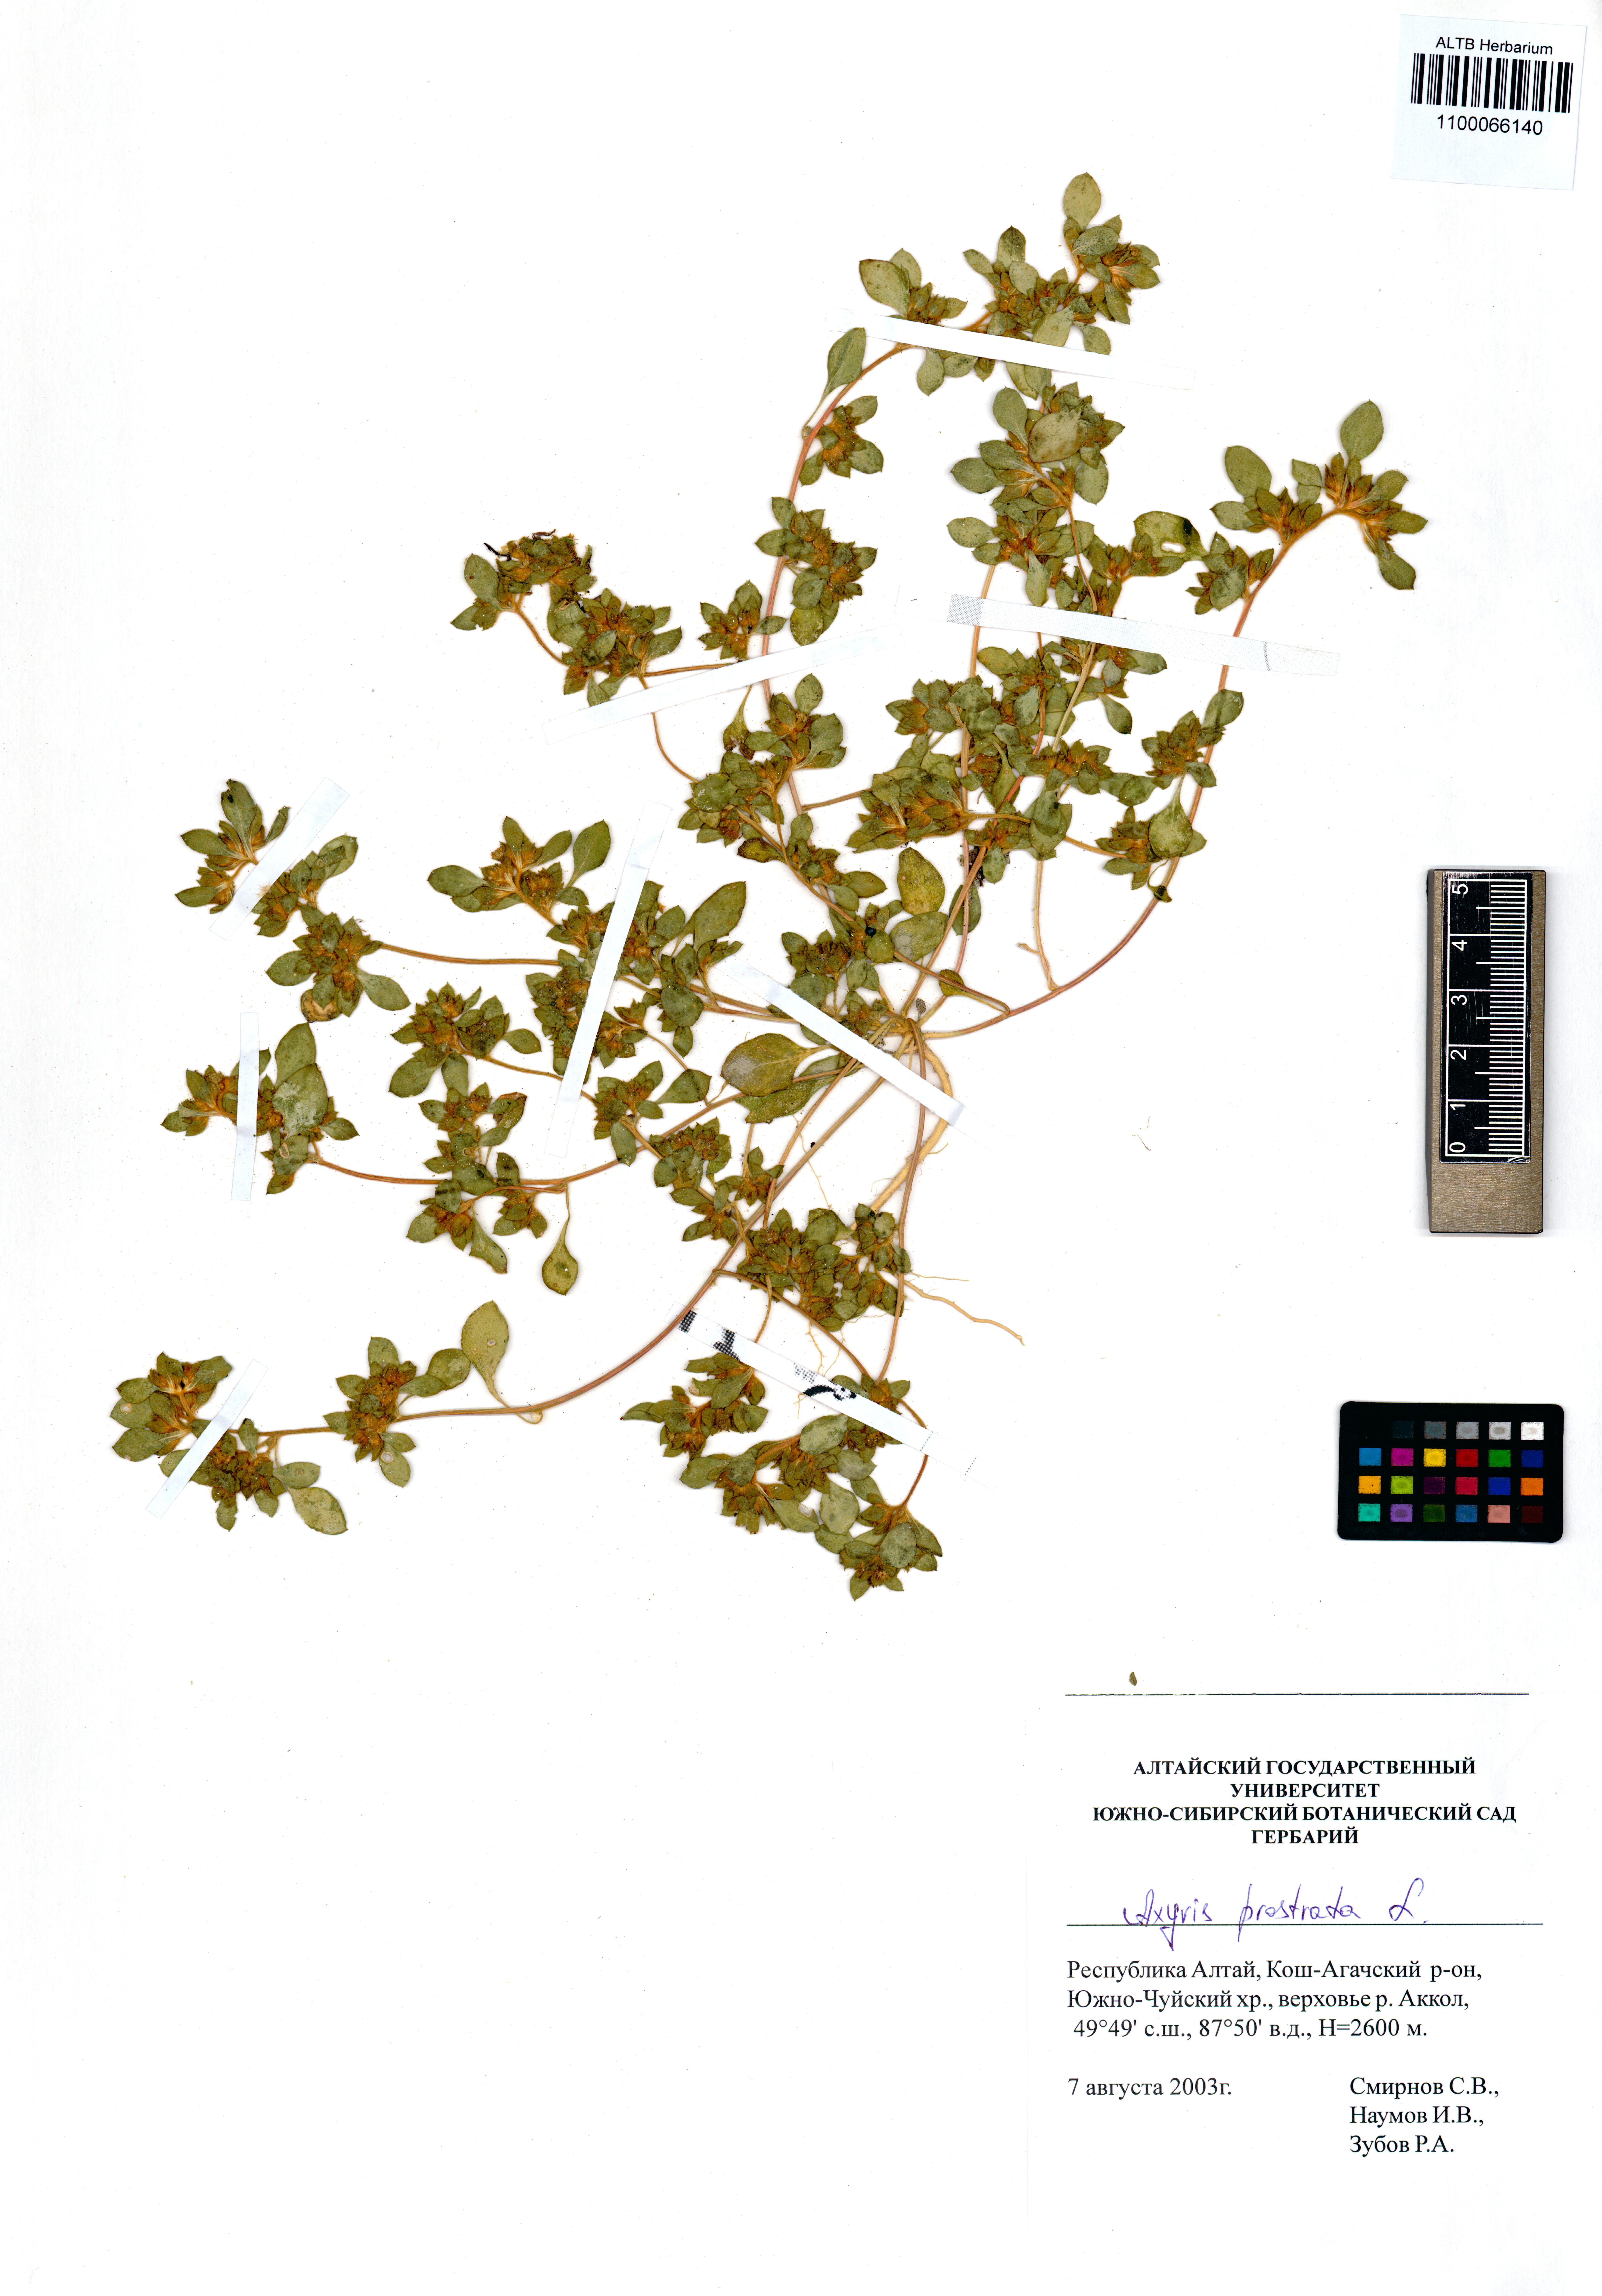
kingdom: Plantae
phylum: Tracheophyta
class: Magnoliopsida
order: Caryophyllales
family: Amaranthaceae
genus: Axyris
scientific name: Axyris prostrata
